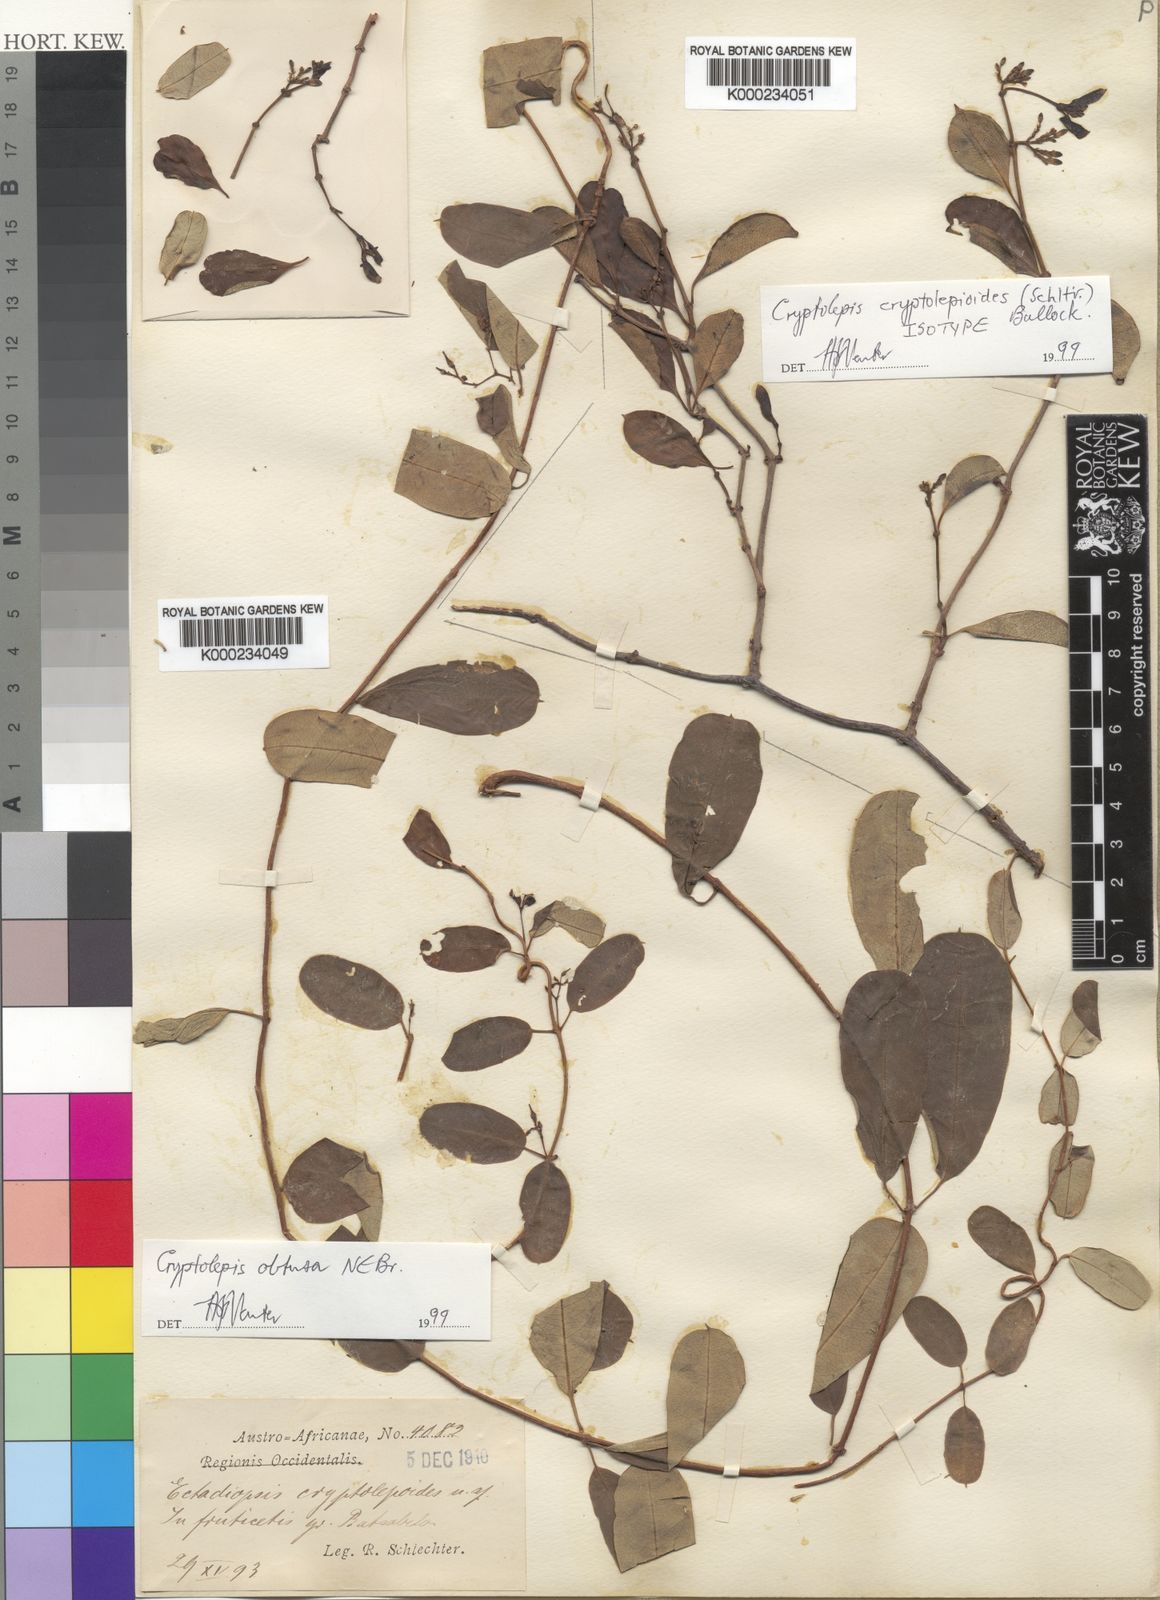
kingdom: Plantae
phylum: Tracheophyta
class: Magnoliopsida
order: Gentianales
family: Apocynaceae
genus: Cryptolepis
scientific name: Cryptolepis cryptolepioides
